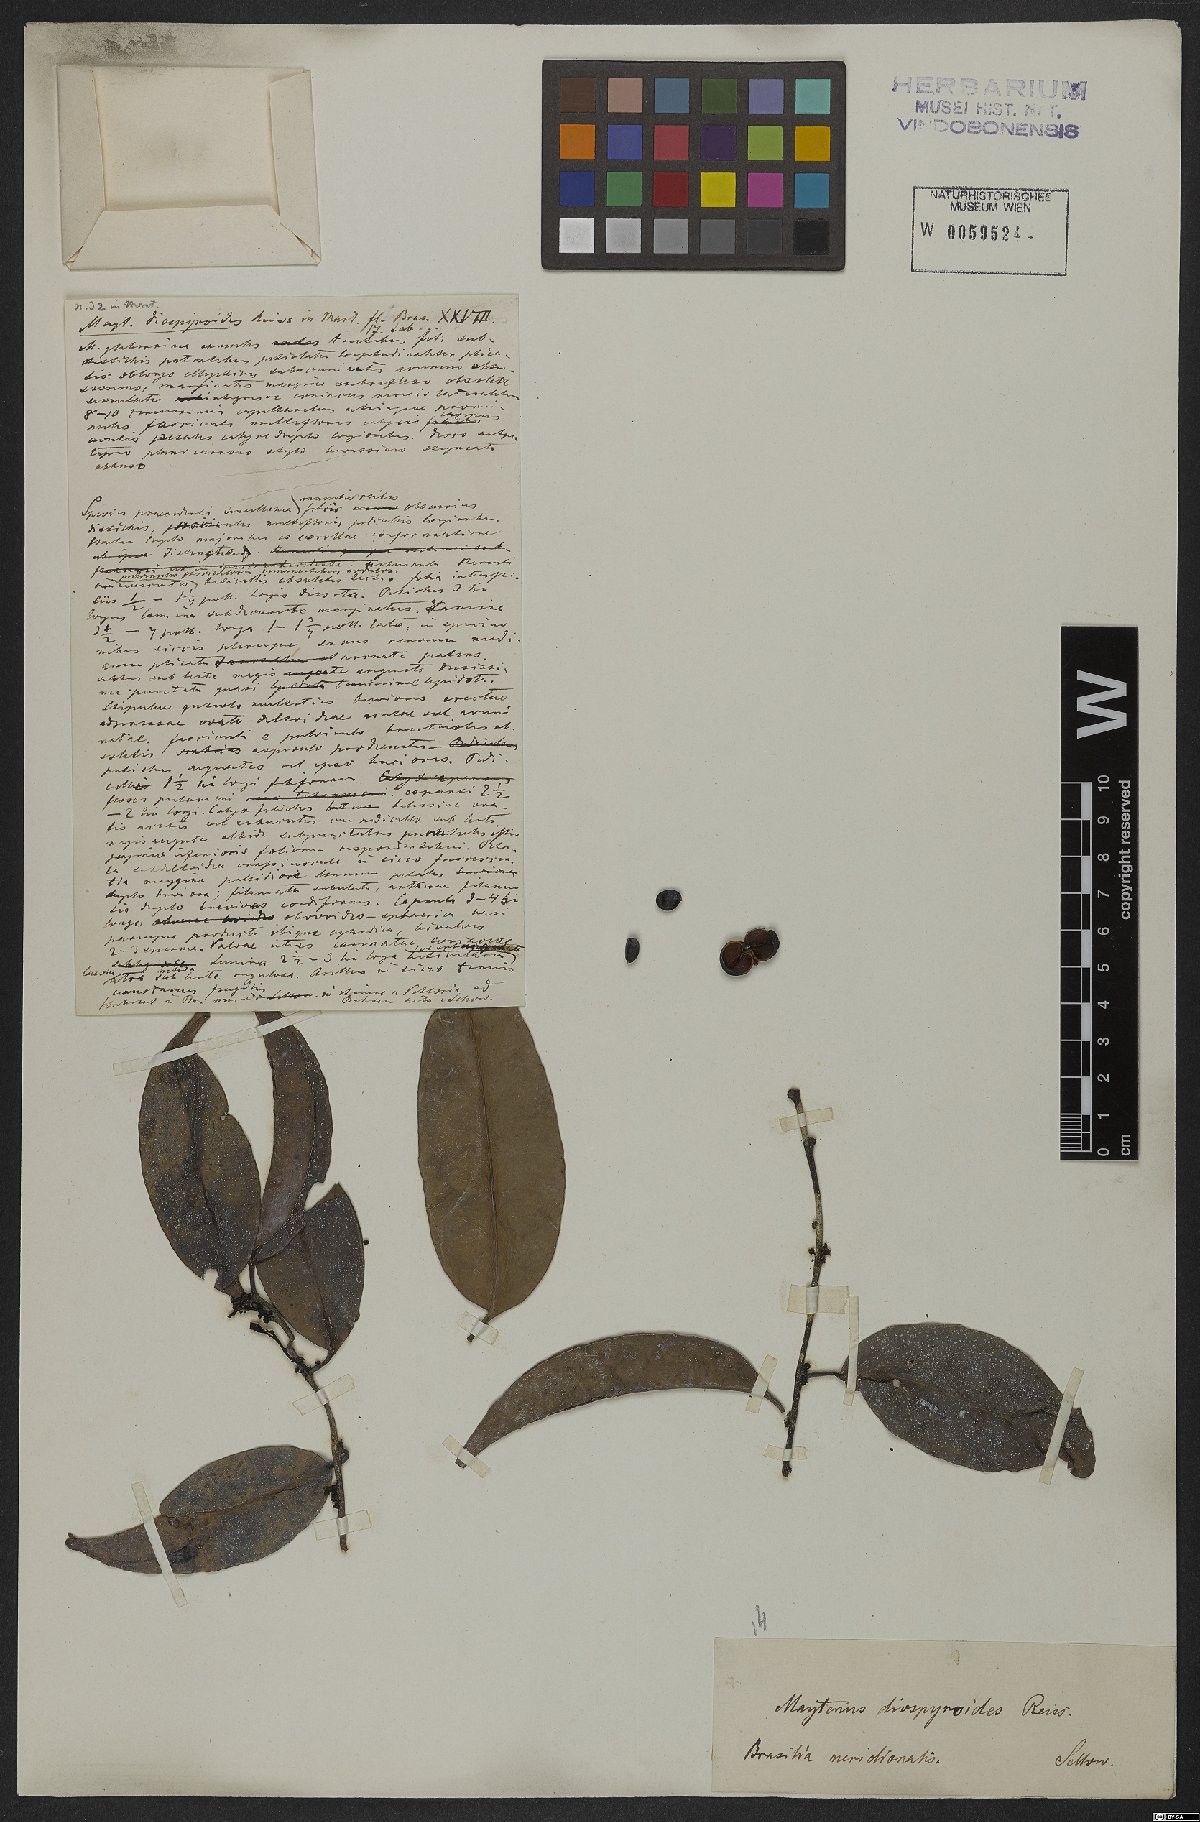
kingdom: Plantae
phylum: Tracheophyta
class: Magnoliopsida
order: Celastrales
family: Celastraceae
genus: Monteverdia
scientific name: Monteverdia distichophylla
